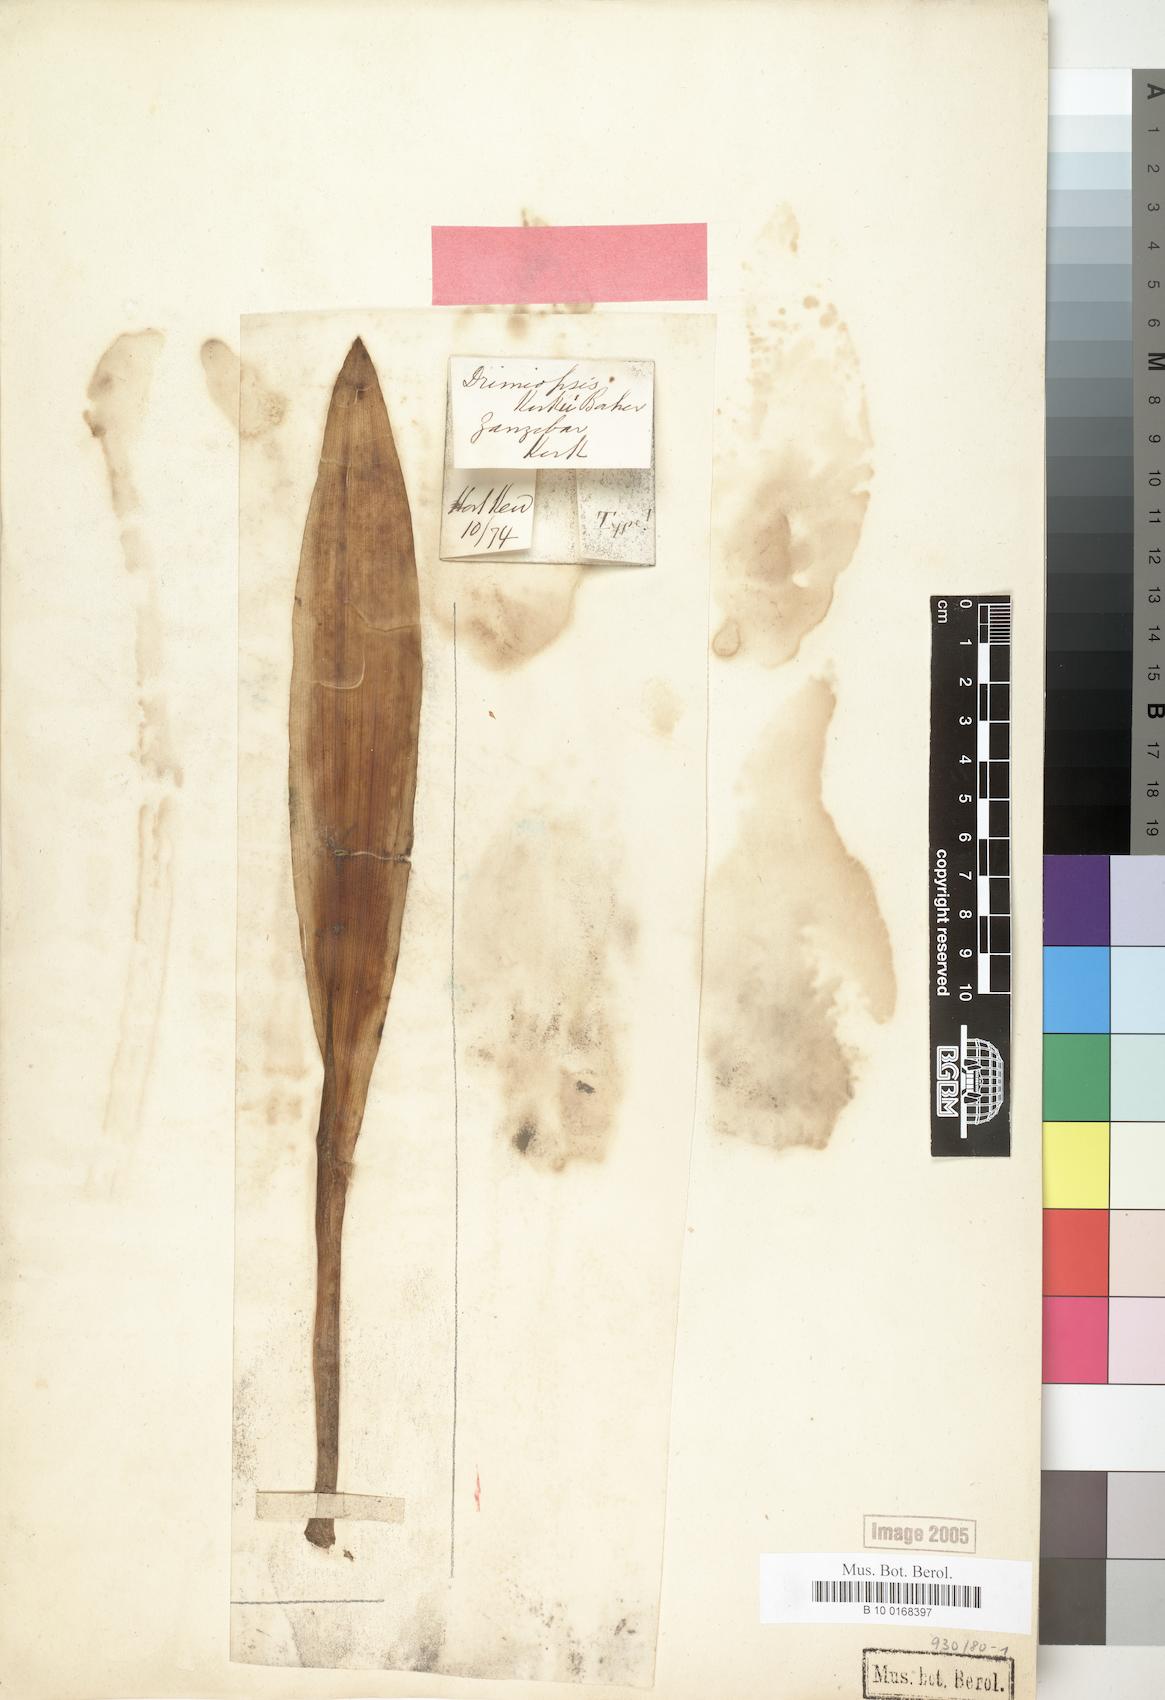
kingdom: Plantae
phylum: Tracheophyta
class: Liliopsida
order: Asparagales
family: Asparagaceae
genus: Drimiopsis
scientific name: Drimiopsis botryoides
